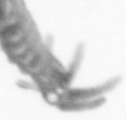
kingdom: Animalia
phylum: Annelida
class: Polychaeta
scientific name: Polychaeta
